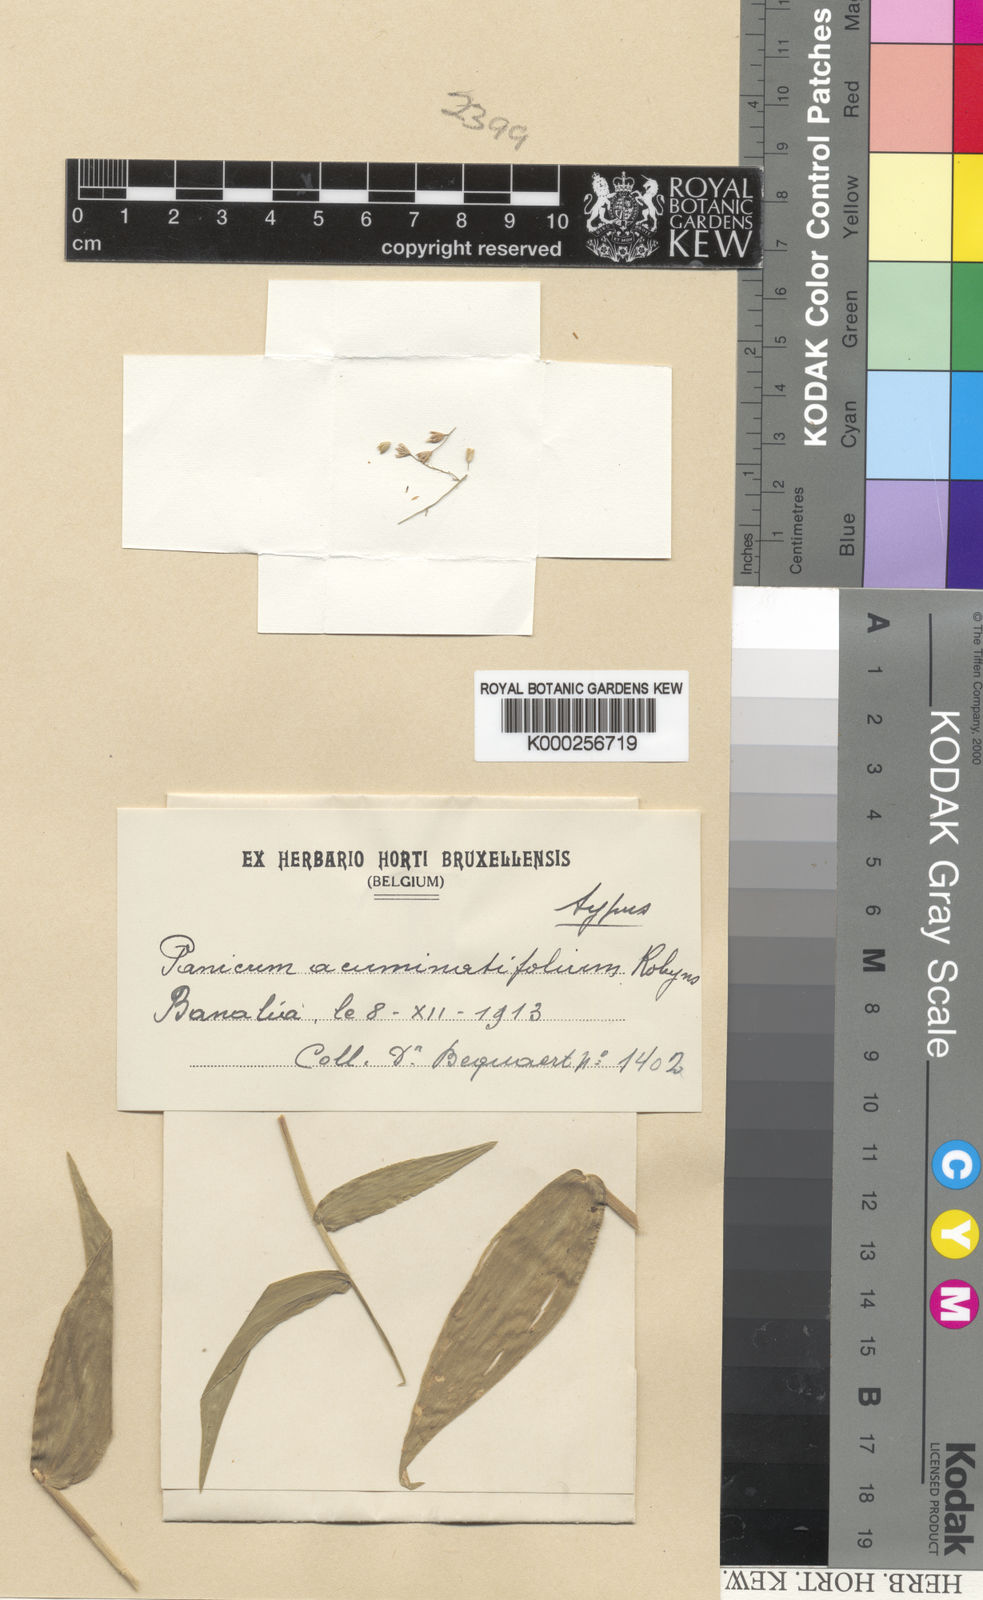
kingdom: Plantae
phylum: Tracheophyta
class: Liliopsida
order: Poales
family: Poaceae
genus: Adenochloa
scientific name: Adenochloa sadinii
